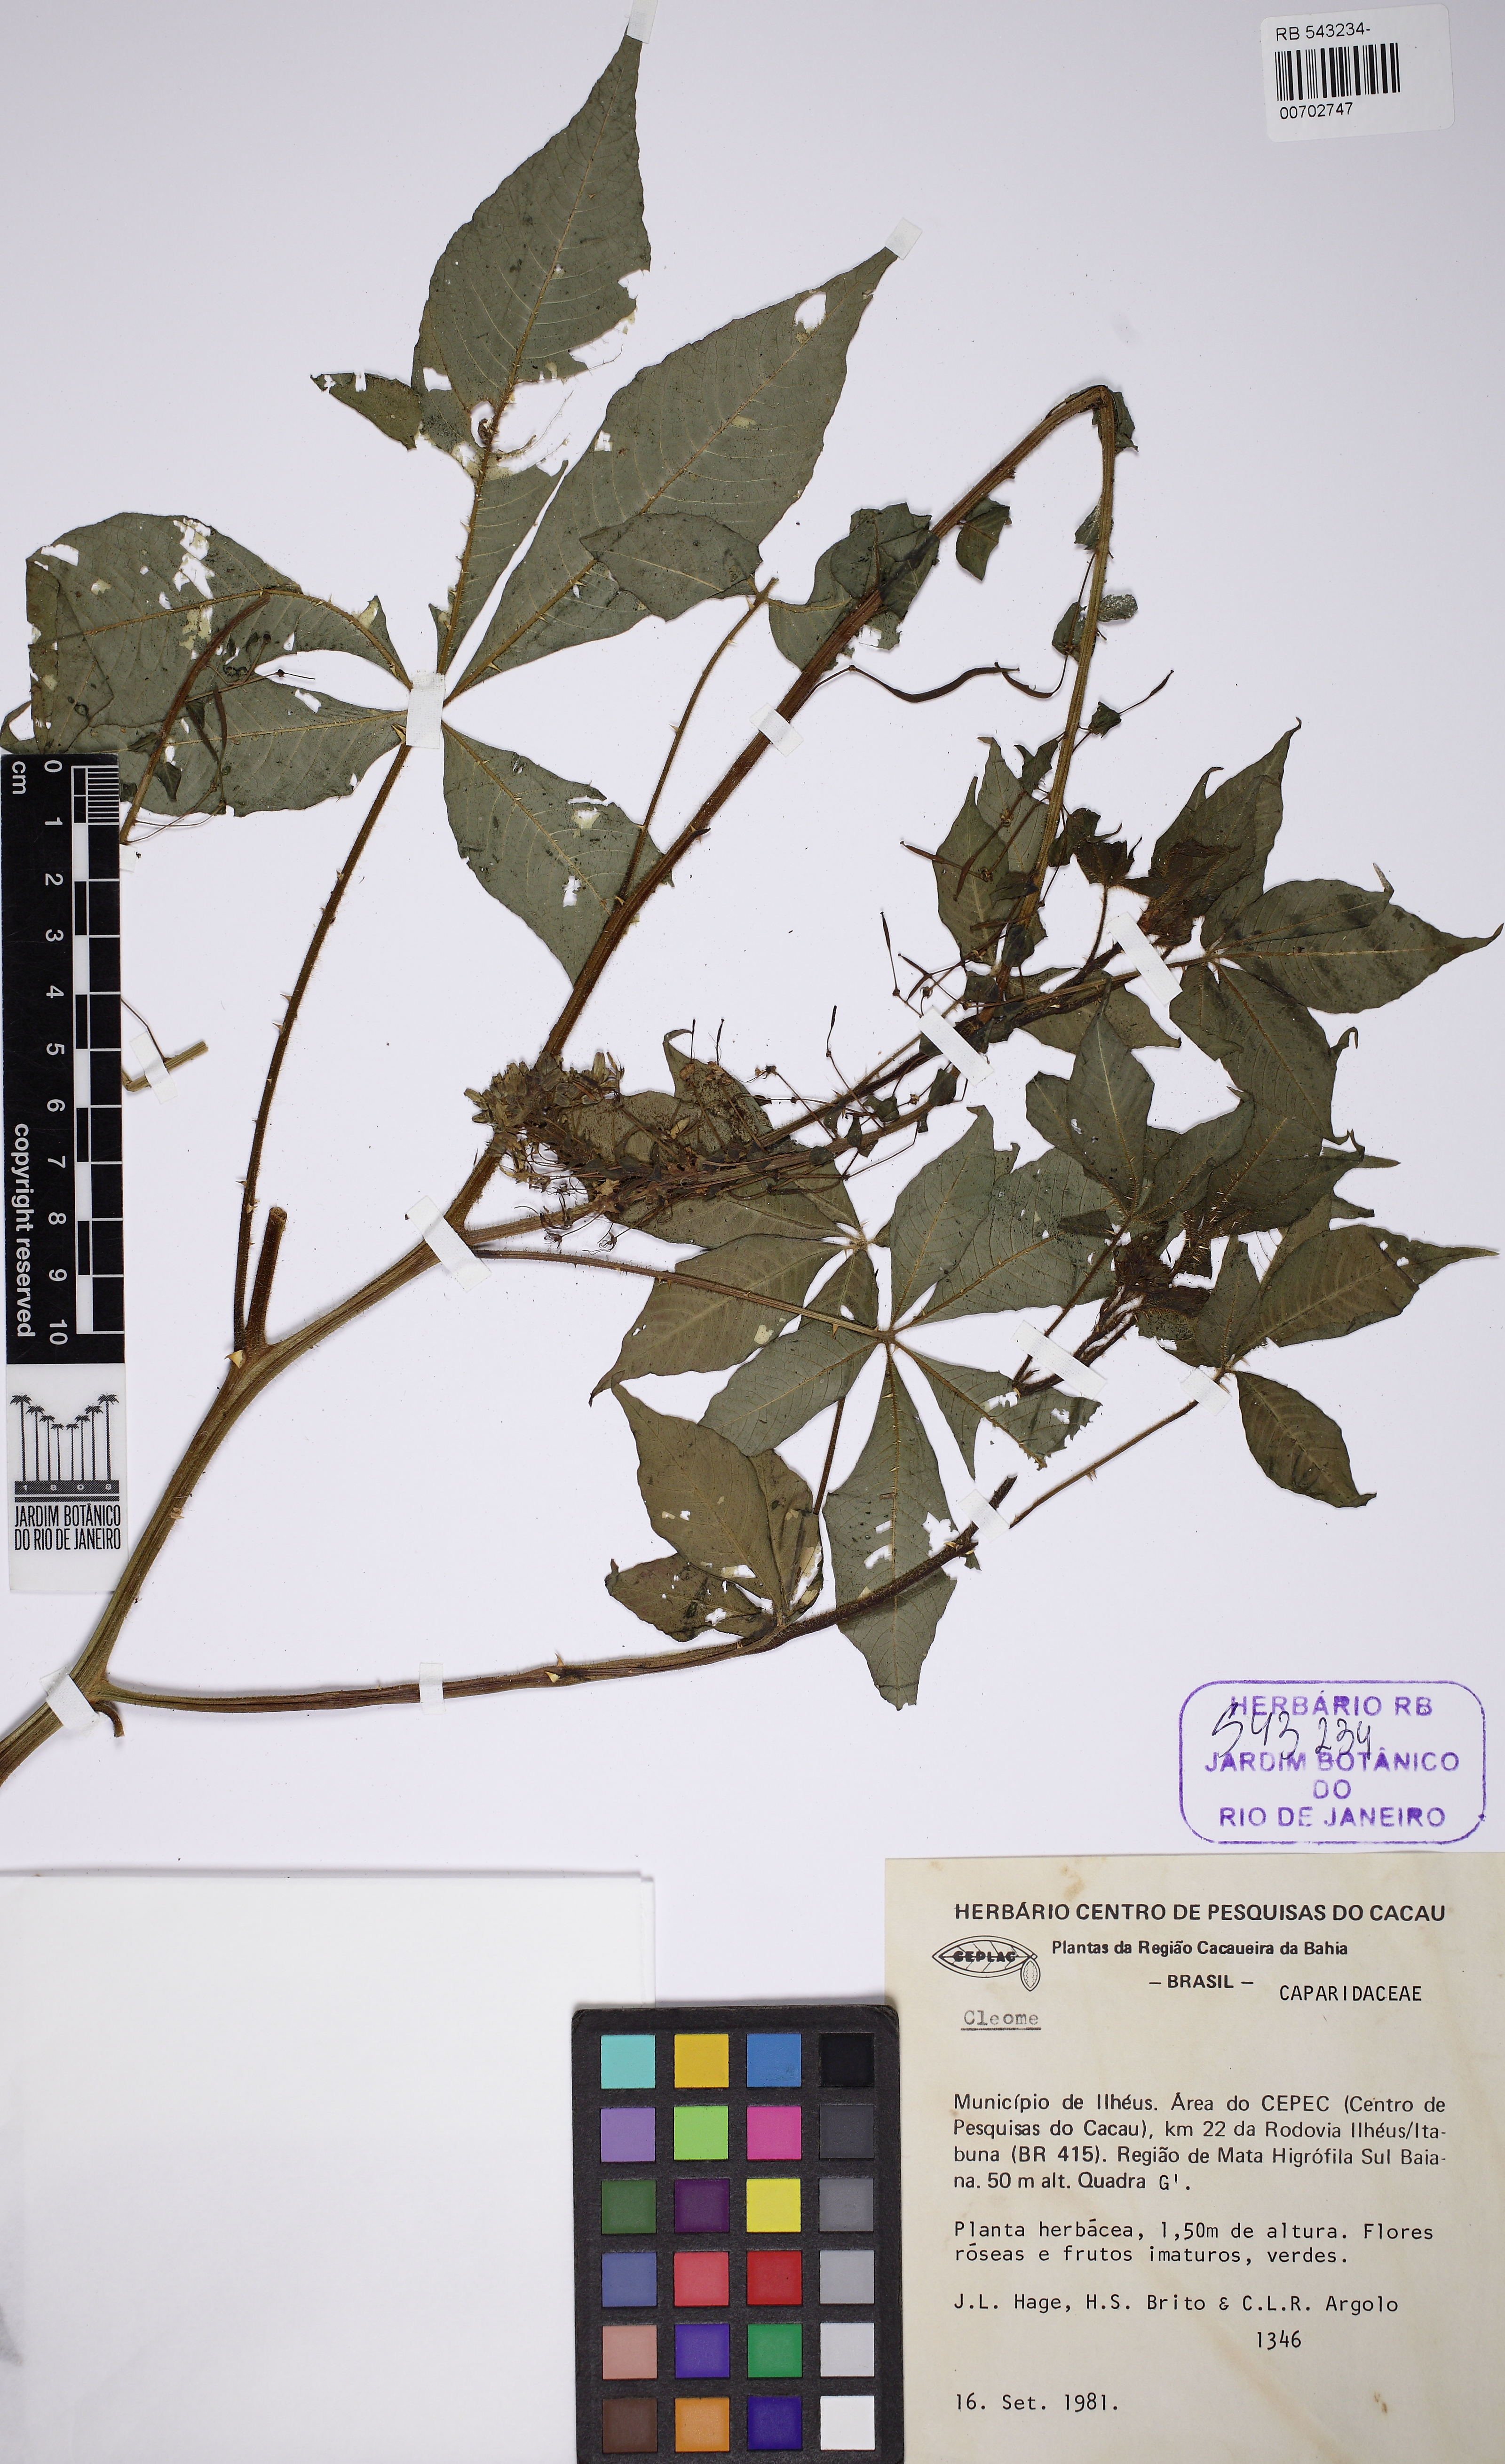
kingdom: Plantae
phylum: Tracheophyta
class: Magnoliopsida
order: Brassicales
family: Cleomaceae
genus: Tarenaya
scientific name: Tarenaya parviflora
